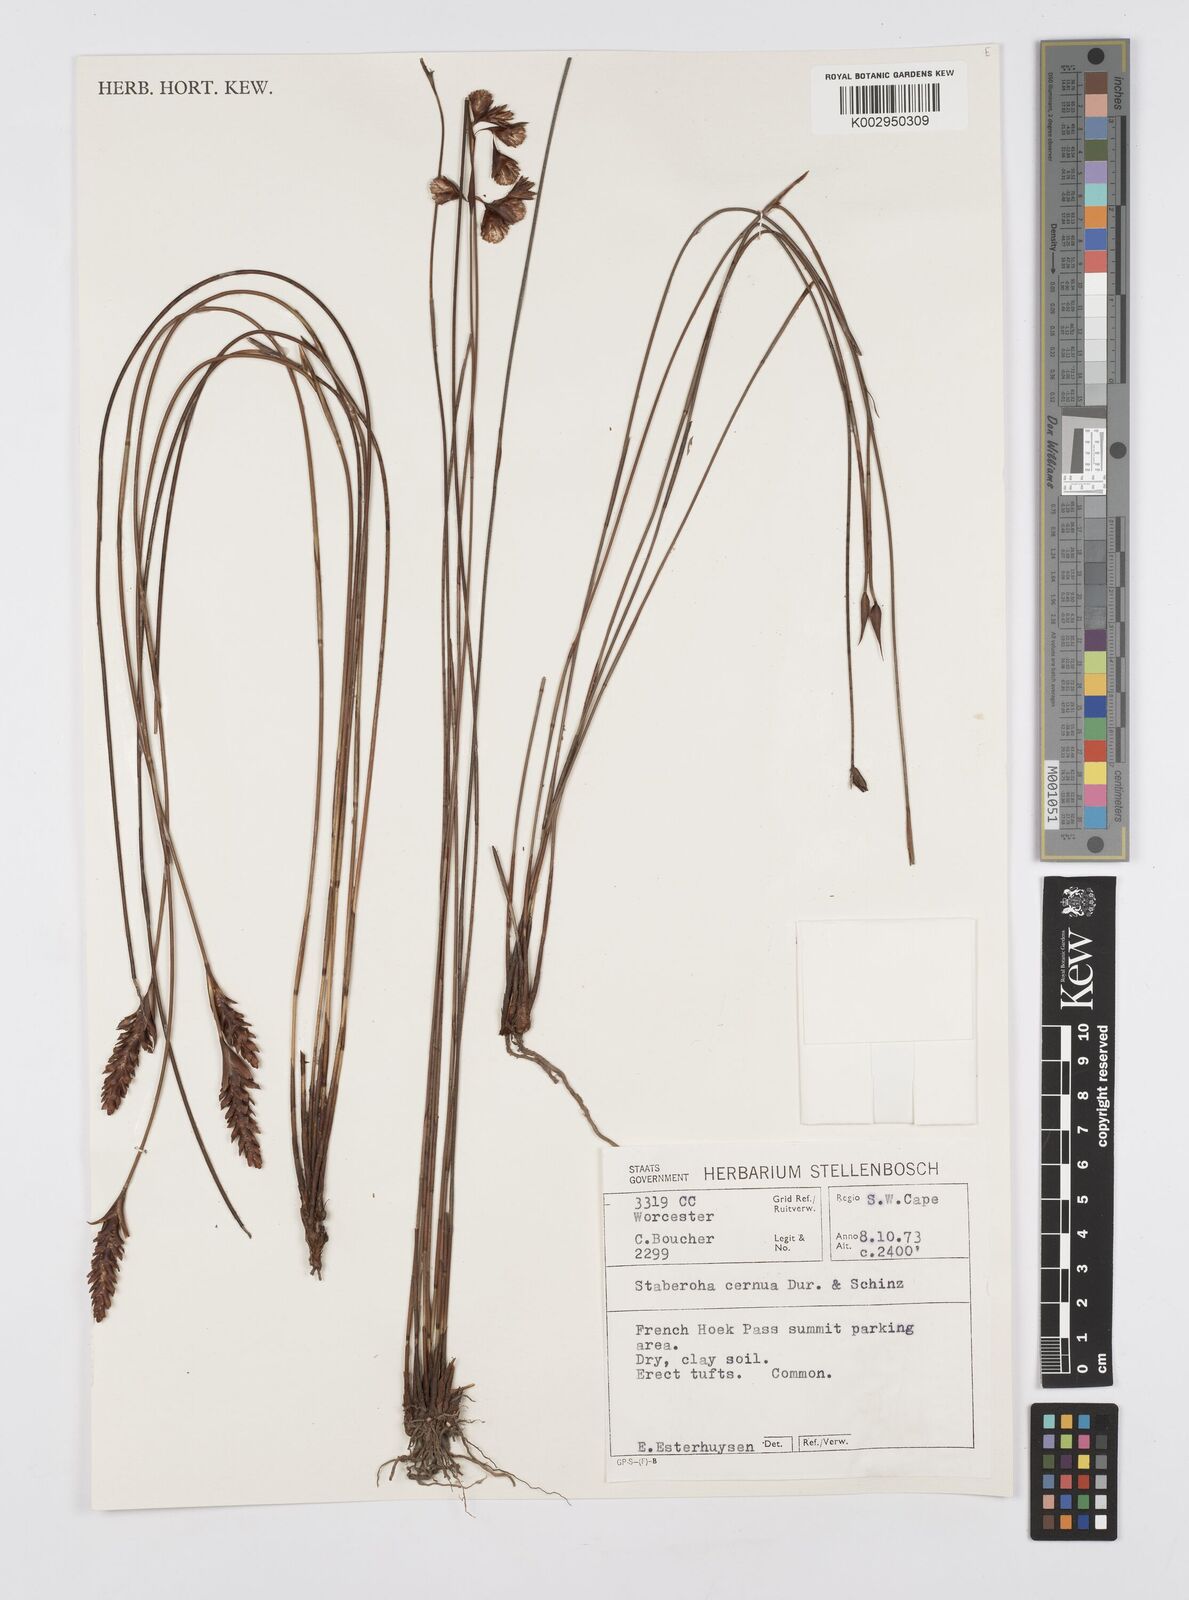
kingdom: Plantae
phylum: Tracheophyta
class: Liliopsida
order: Poales
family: Restionaceae
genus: Staberoha
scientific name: Staberoha cernua
